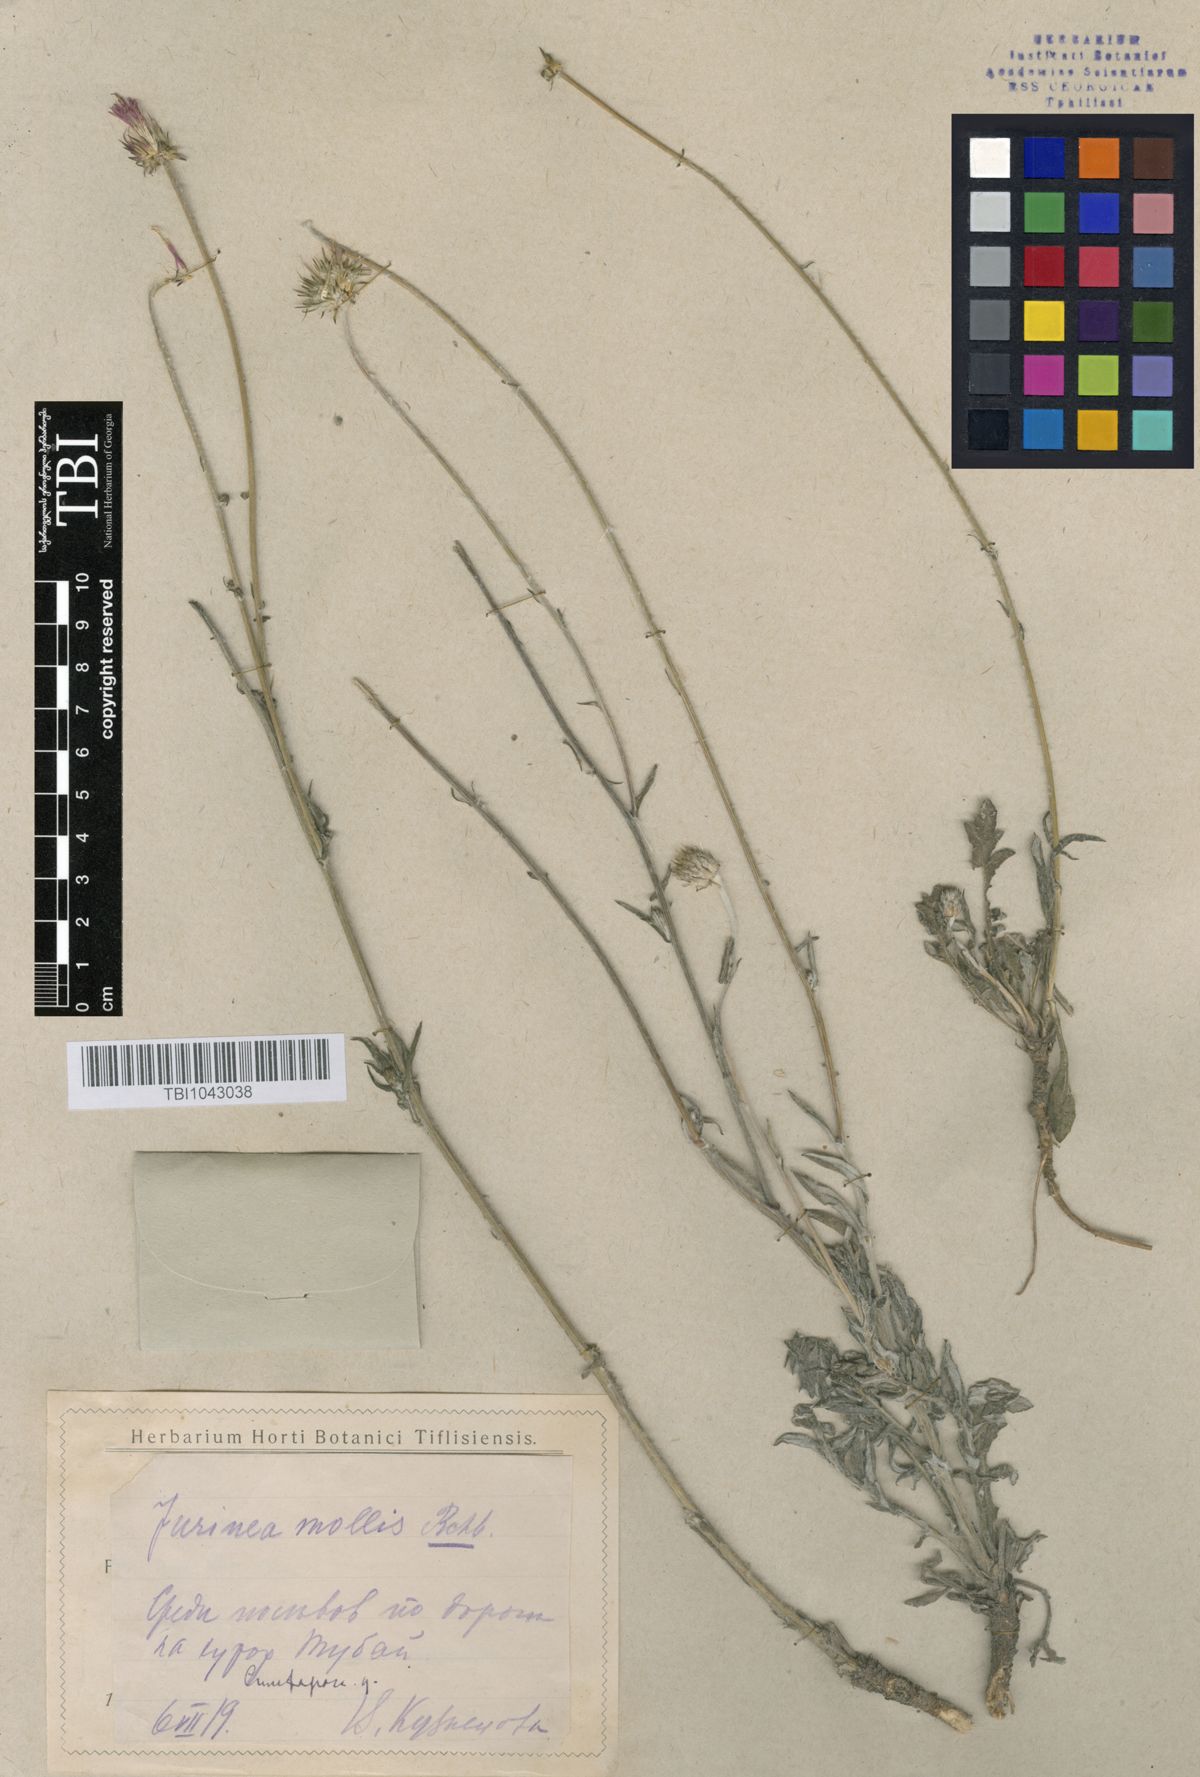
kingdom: Plantae
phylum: Tracheophyta
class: Magnoliopsida
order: Asterales
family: Asteraceae
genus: Jurinea
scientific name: Jurinea roegneri
